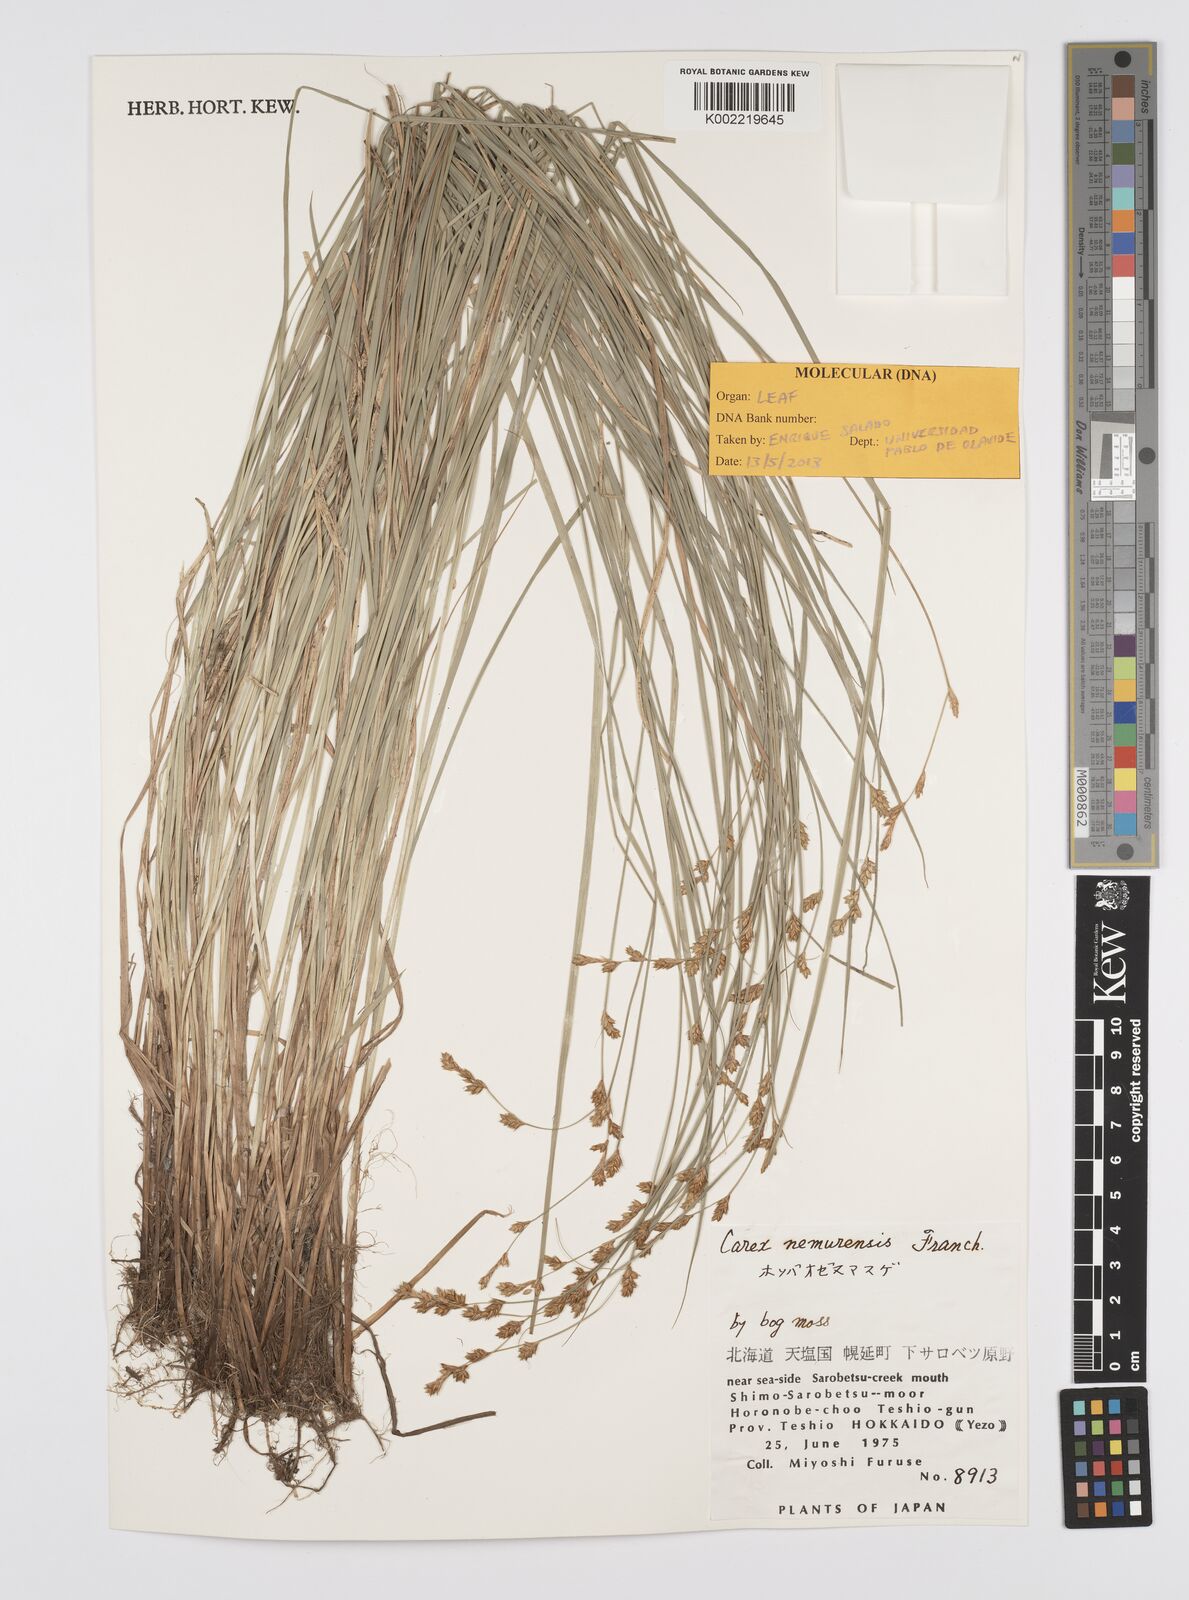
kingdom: Plantae
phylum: Tracheophyta
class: Liliopsida
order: Poales
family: Cyperaceae
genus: Carex
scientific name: Carex traiziscana
